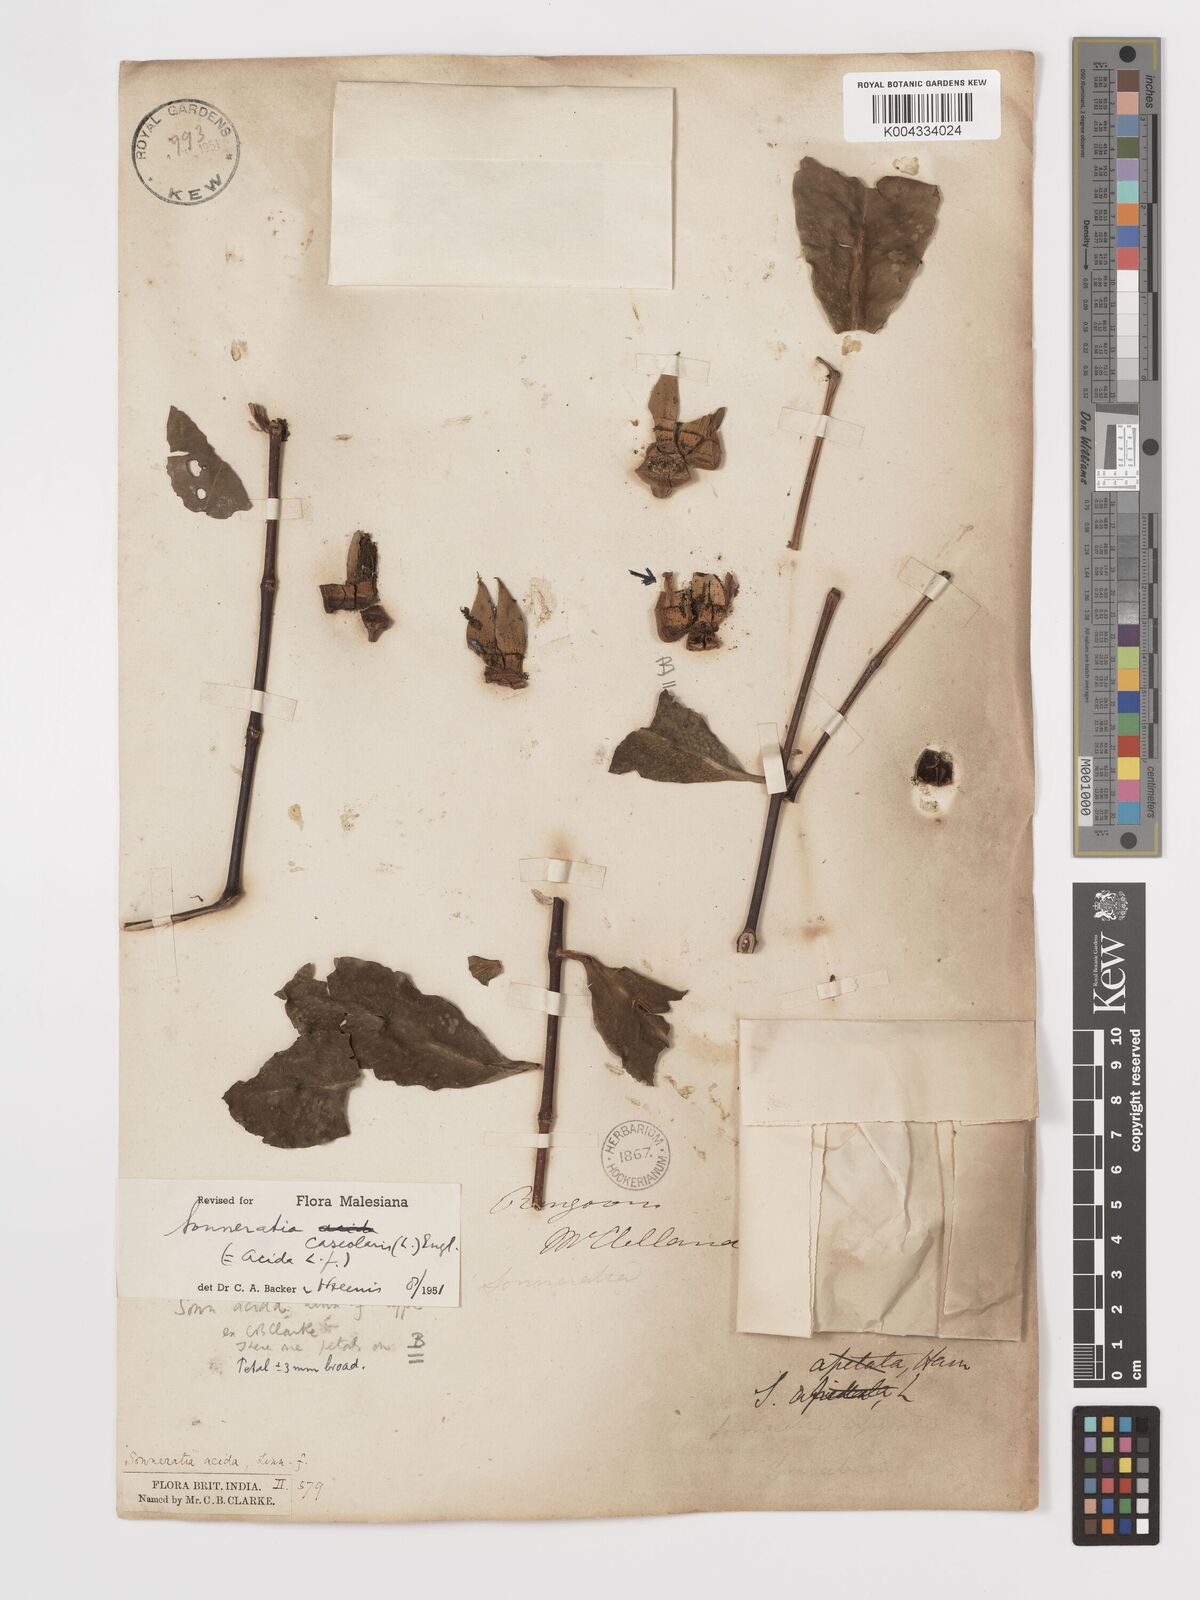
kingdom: Plantae
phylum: Tracheophyta
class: Magnoliopsida
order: Myrtales
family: Lythraceae
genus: Sonneratia
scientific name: Sonneratia caseolaris
